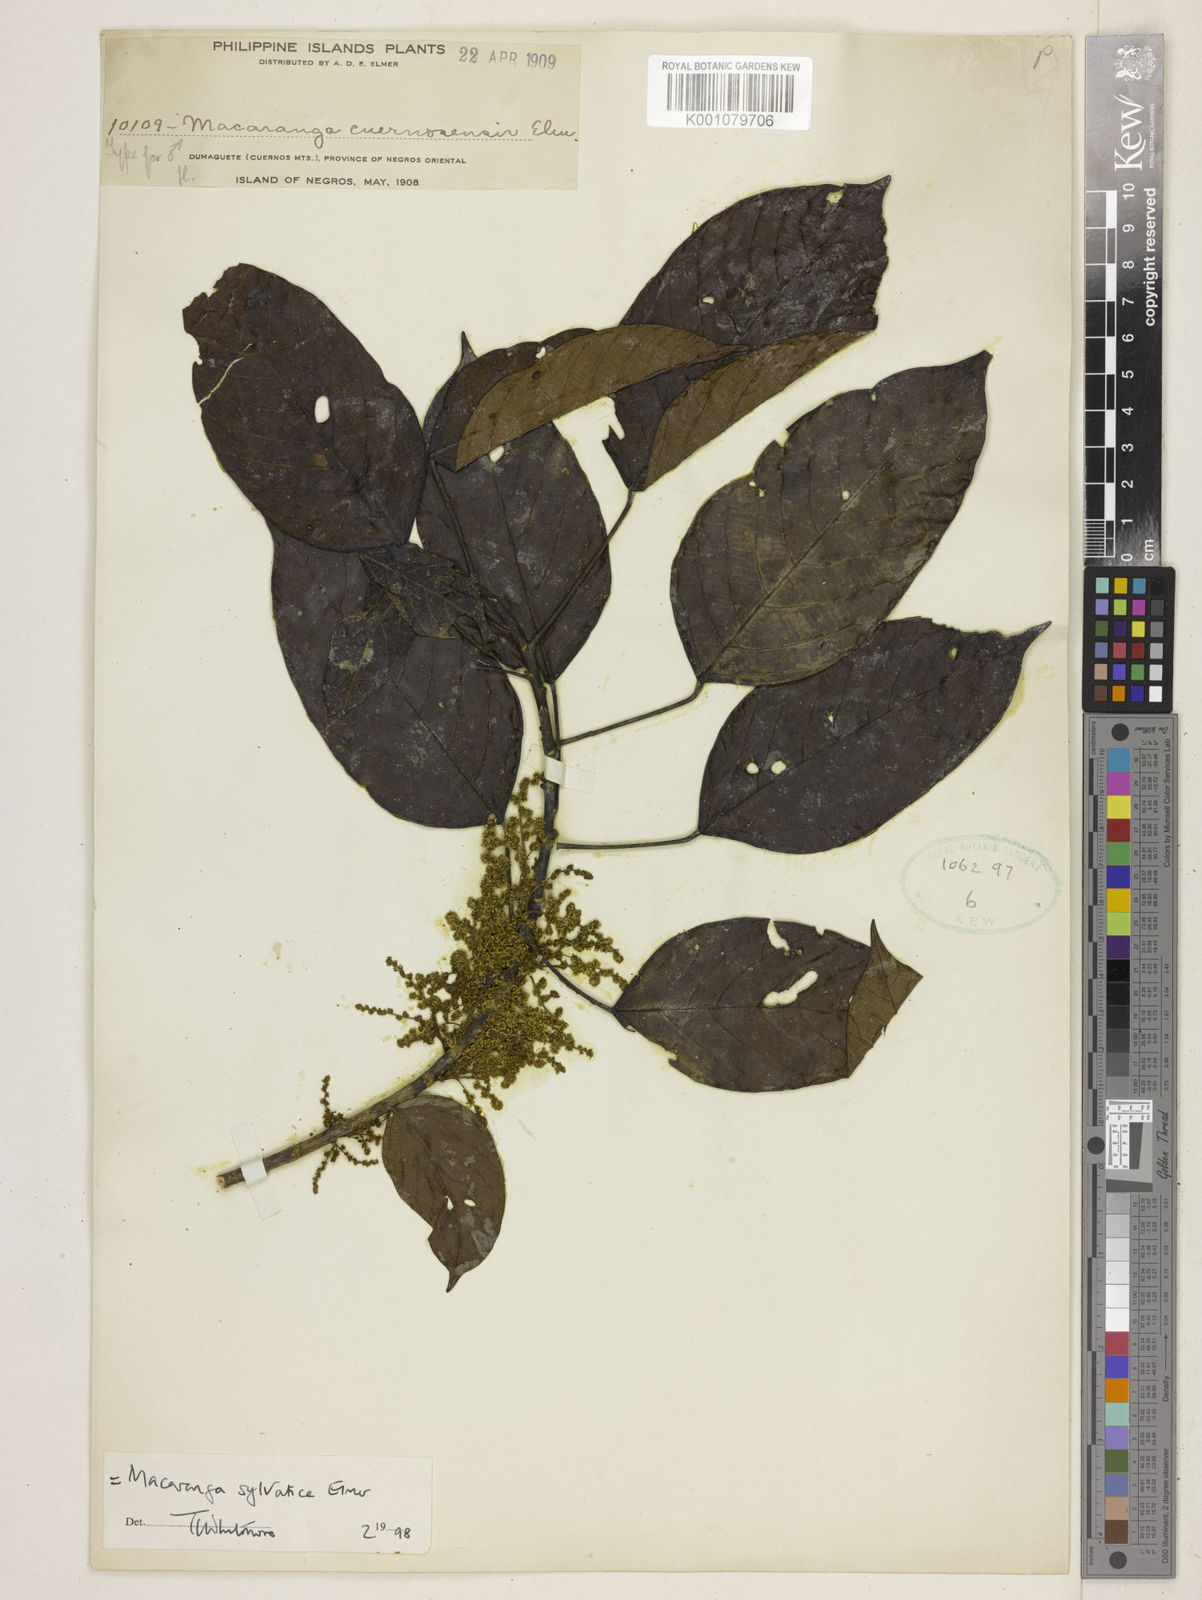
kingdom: Plantae
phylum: Tracheophyta
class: Magnoliopsida
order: Malpighiales
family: Euphorbiaceae
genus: Macaranga
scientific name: Macaranga sylvatica
